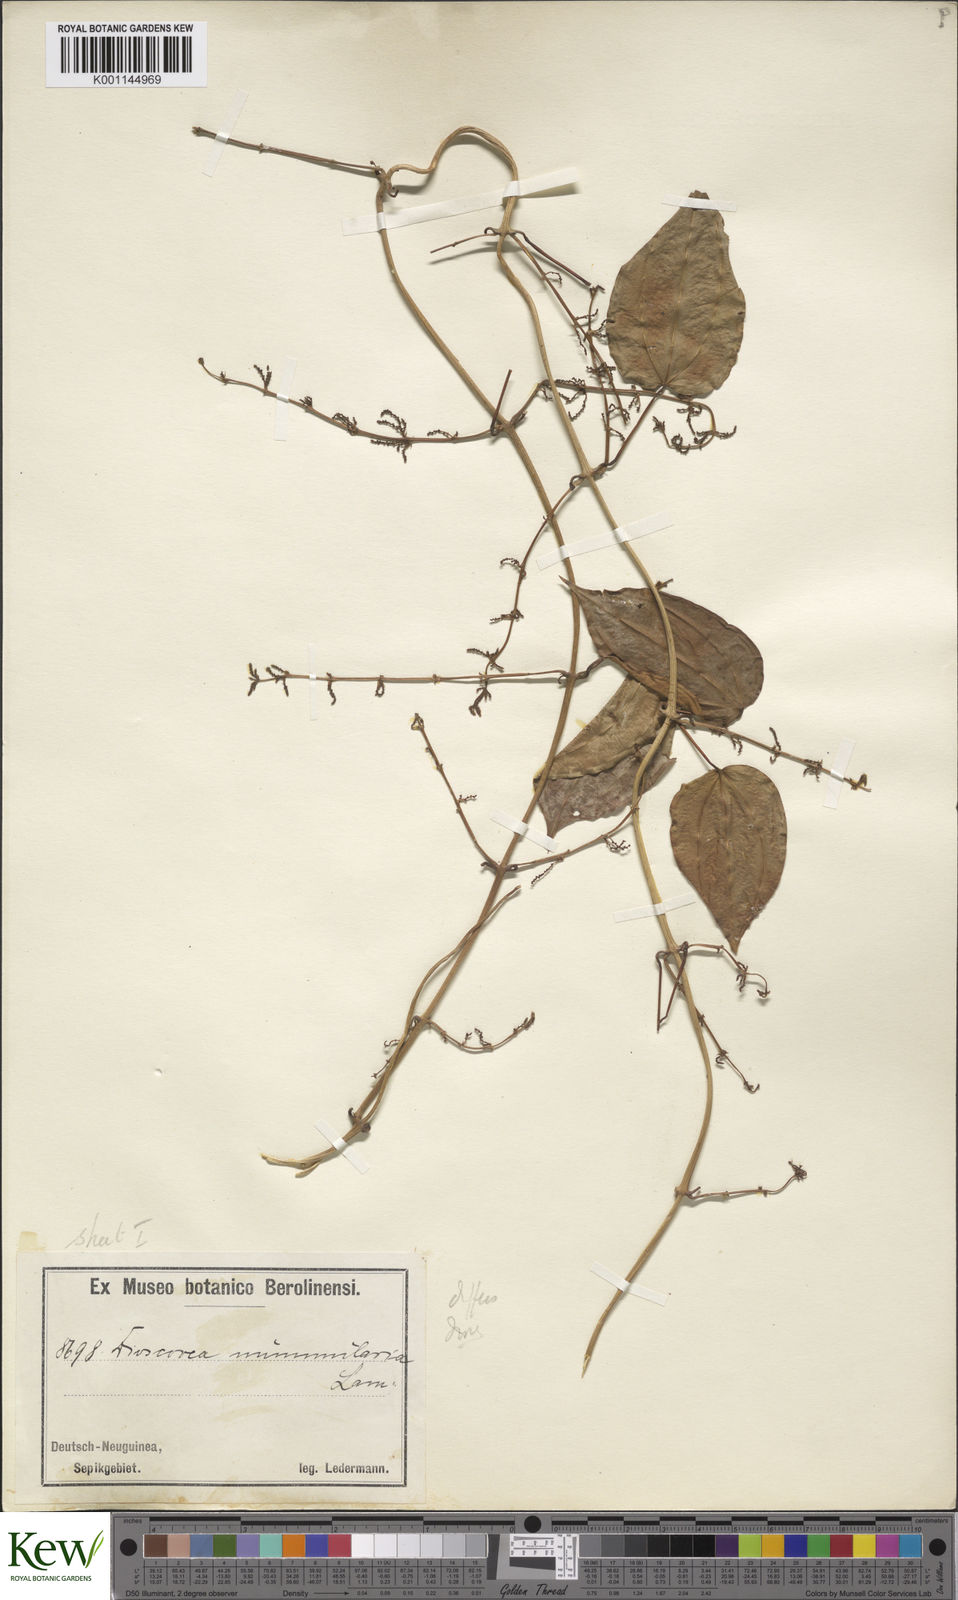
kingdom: Plantae
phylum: Tracheophyta
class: Liliopsida
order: Dioscoreales
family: Dioscoreaceae
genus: Dioscorea
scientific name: Dioscorea nummularia
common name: Pacific yam
